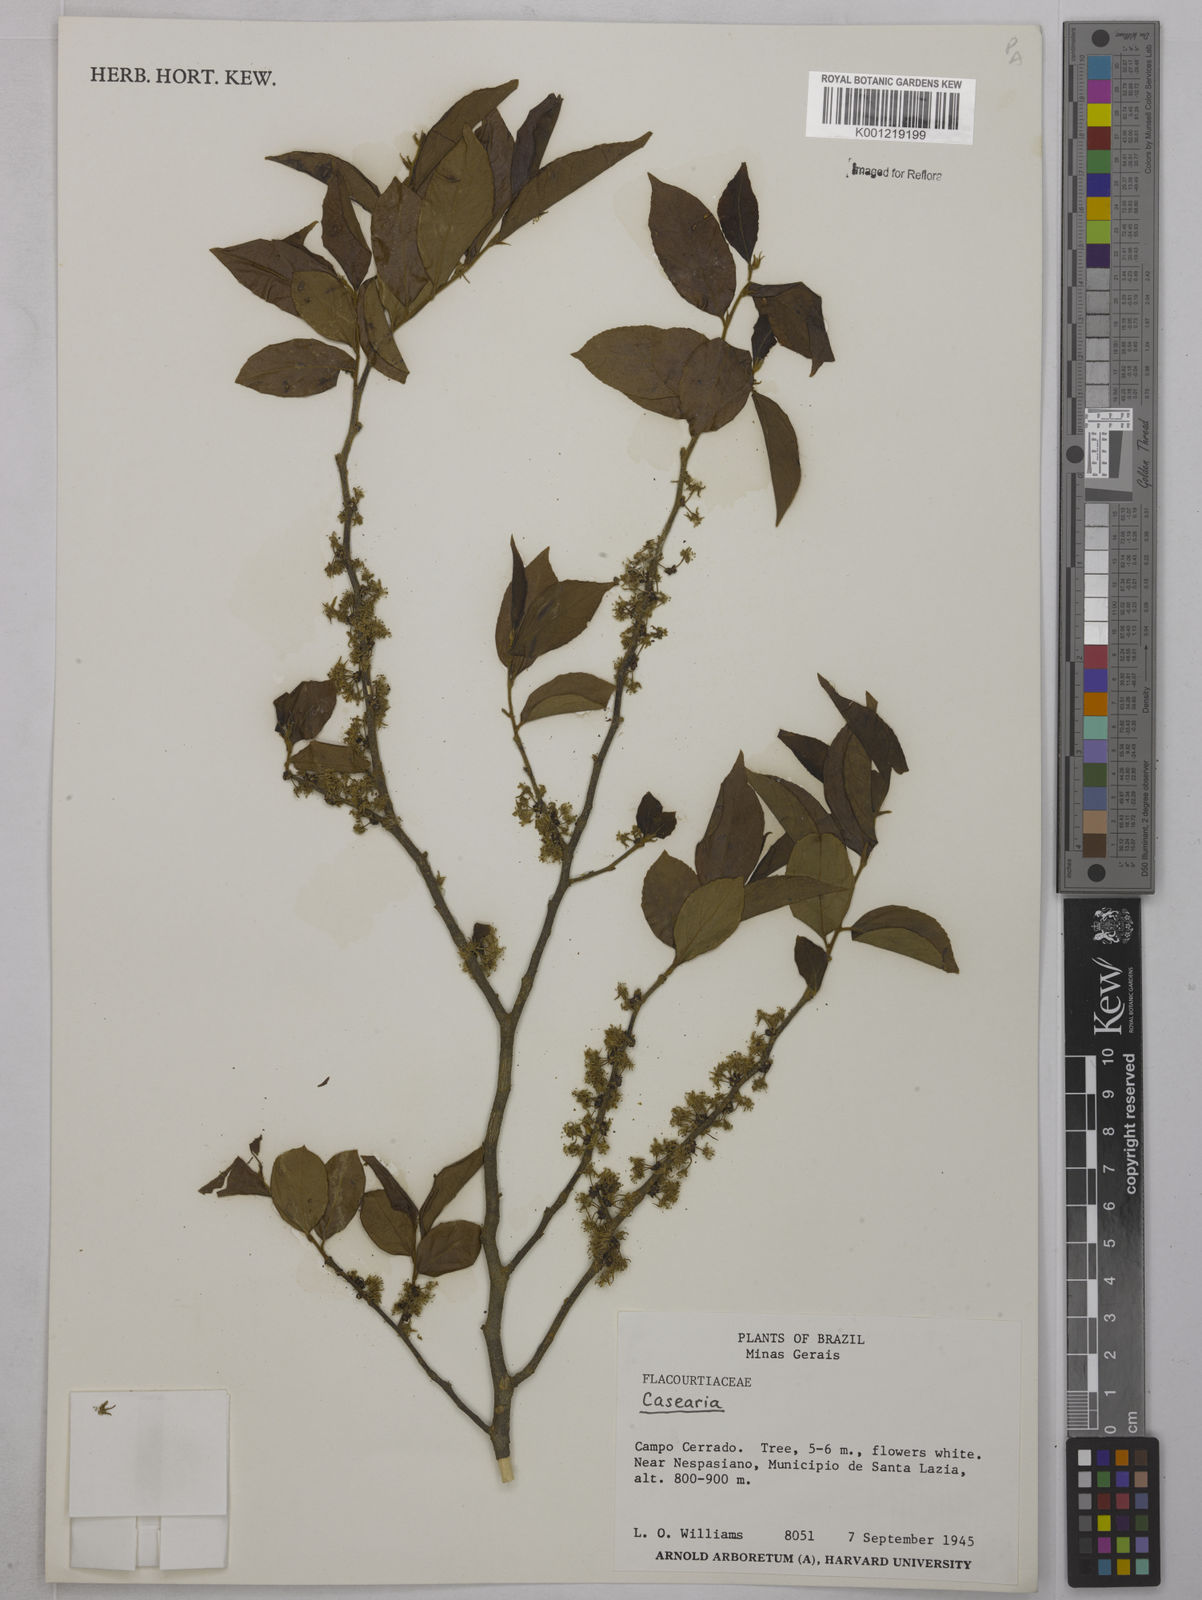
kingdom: Plantae
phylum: Tracheophyta
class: Magnoliopsida
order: Malpighiales
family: Salicaceae
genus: Casearia
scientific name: Casearia
